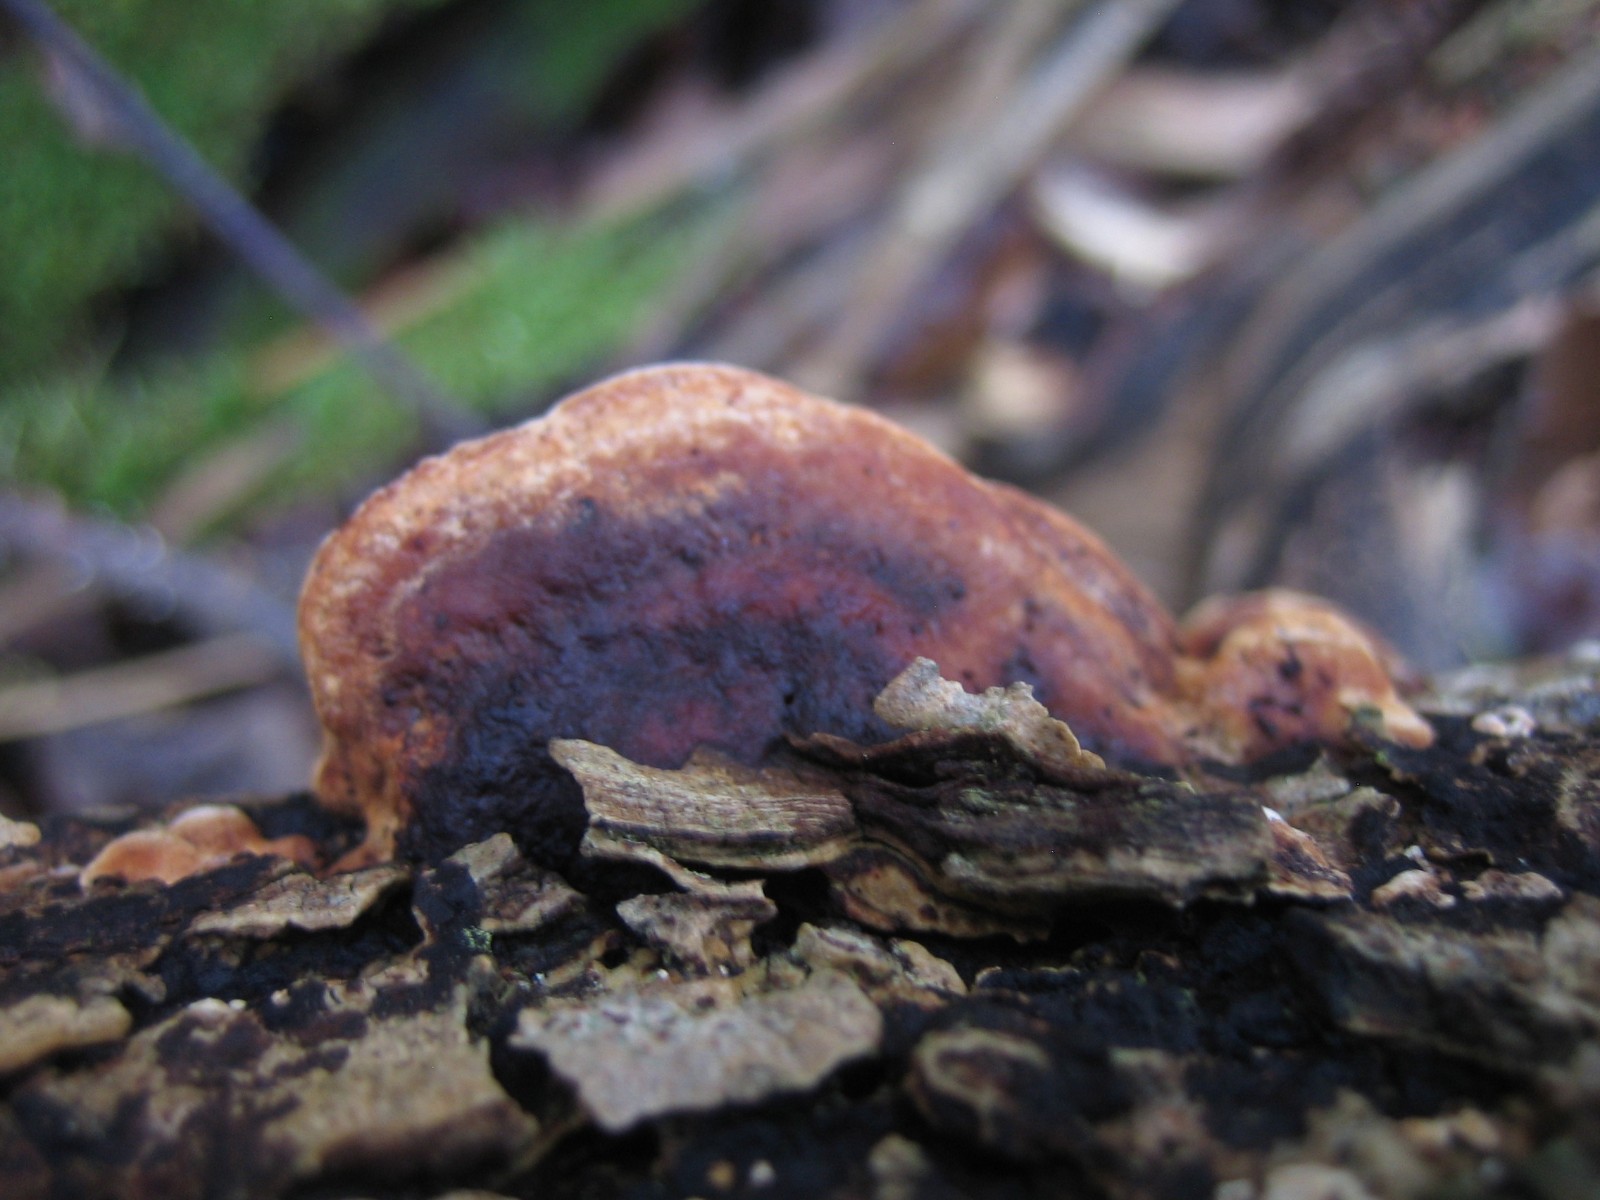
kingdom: Fungi
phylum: Basidiomycota
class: Agaricomycetes
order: Polyporales
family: Incrustoporiaceae
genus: Skeletocutis
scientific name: Skeletocutis nemoralis
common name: stor krystalporesvamp
